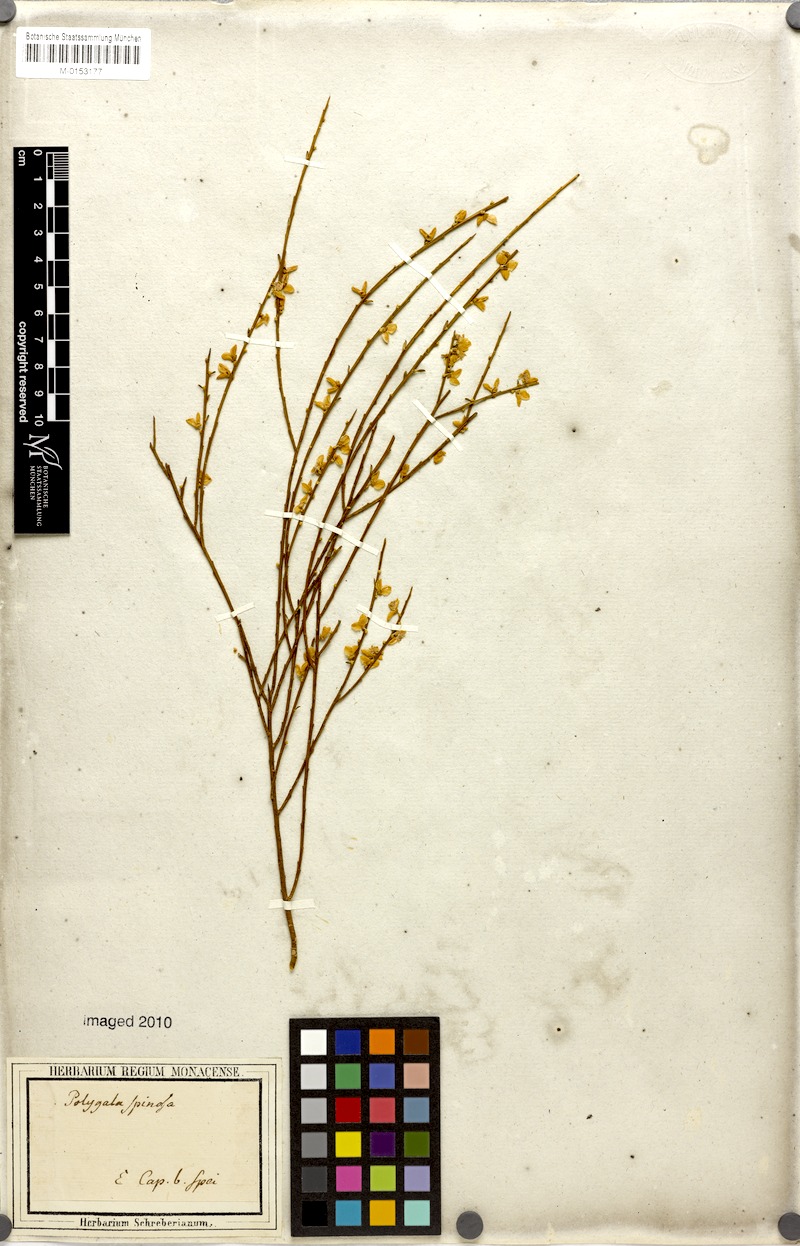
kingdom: Plantae
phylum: Tracheophyta
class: Magnoliopsida
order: Fabales
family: Polygalaceae
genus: Muraltia
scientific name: Muraltia scoparia
